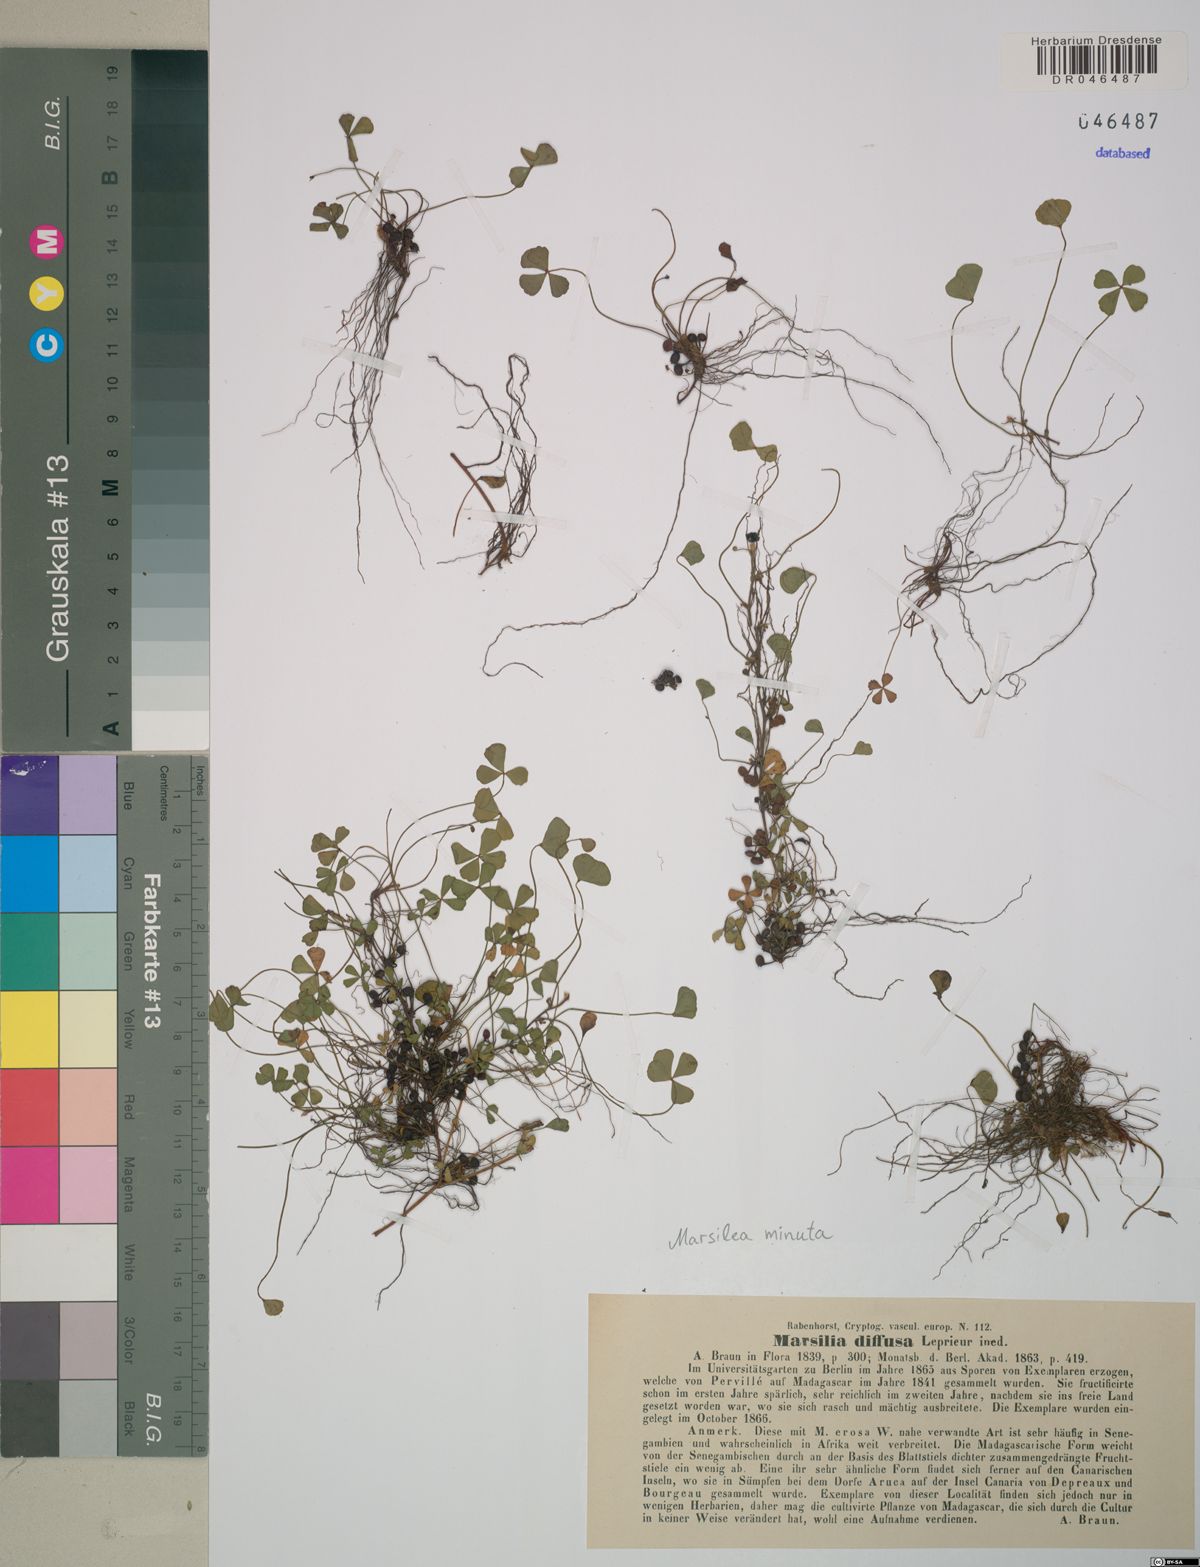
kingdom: Plantae
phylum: Tracheophyta
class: Polypodiopsida
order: Salviniales
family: Marsileaceae
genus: Marsilea
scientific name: Marsilea minuta
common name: Dwarf waterclover
